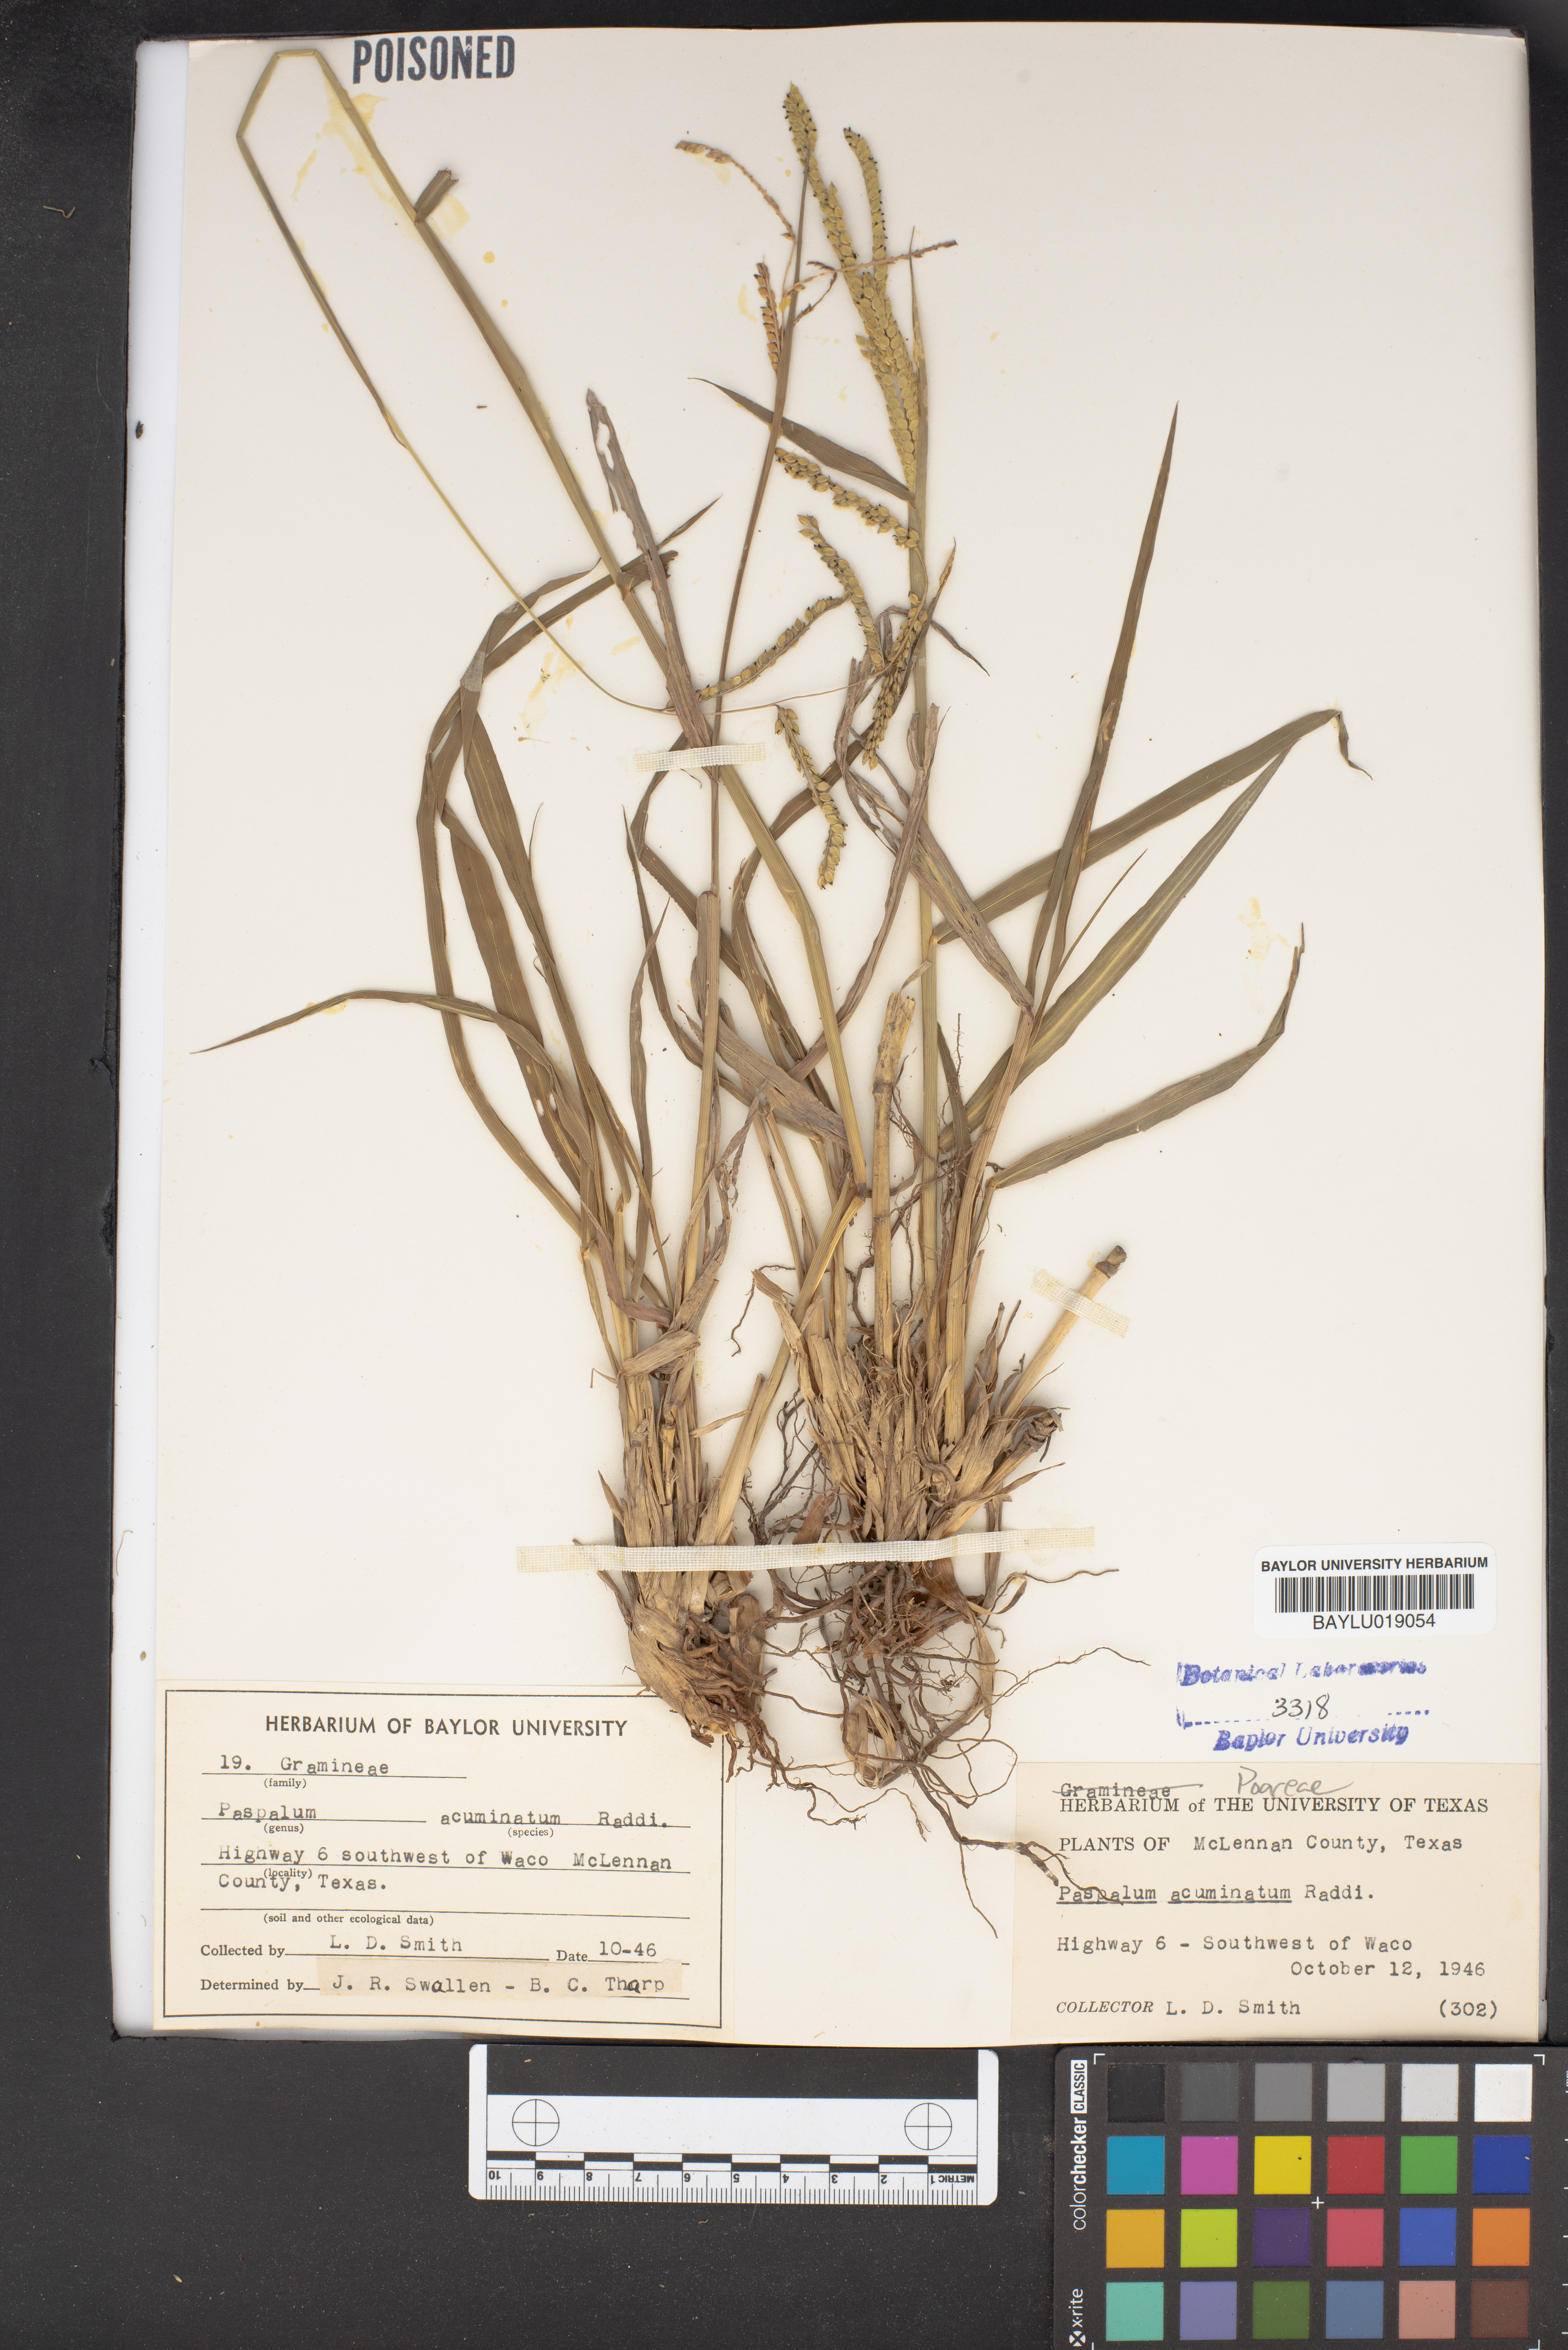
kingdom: Plantae
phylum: Tracheophyta
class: Liliopsida
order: Poales
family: Poaceae
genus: Paspalum
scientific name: Paspalum acuminatum
